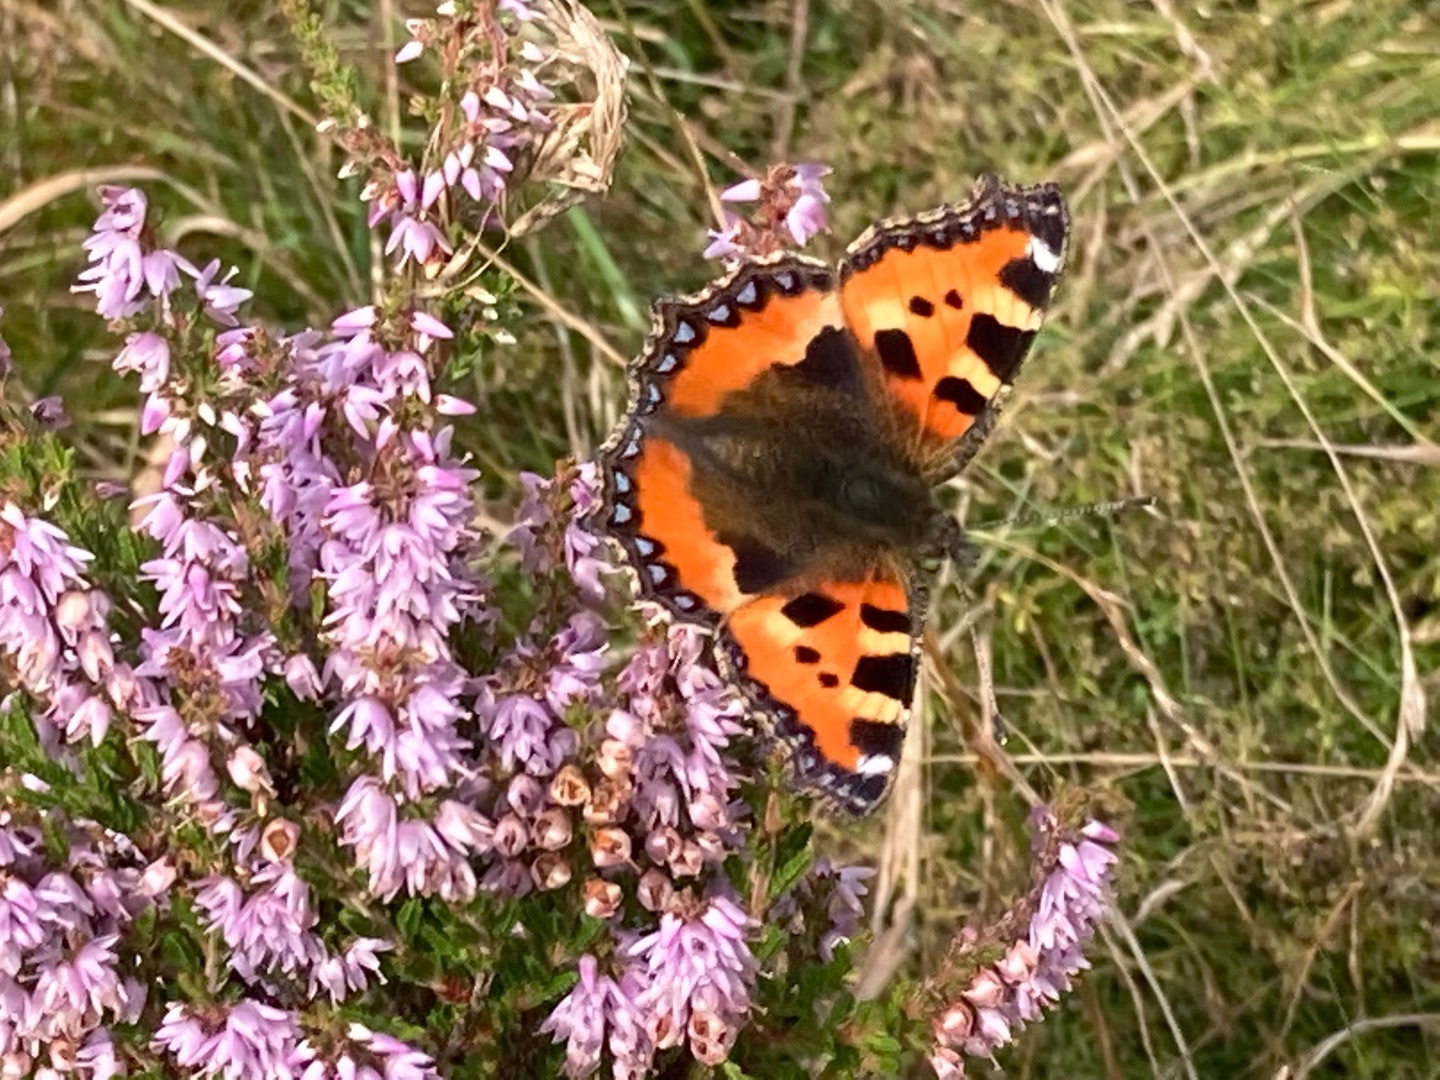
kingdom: Animalia
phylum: Arthropoda
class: Insecta
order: Lepidoptera
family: Nymphalidae
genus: Aglais
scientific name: Aglais urticae
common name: Nældens takvinge
